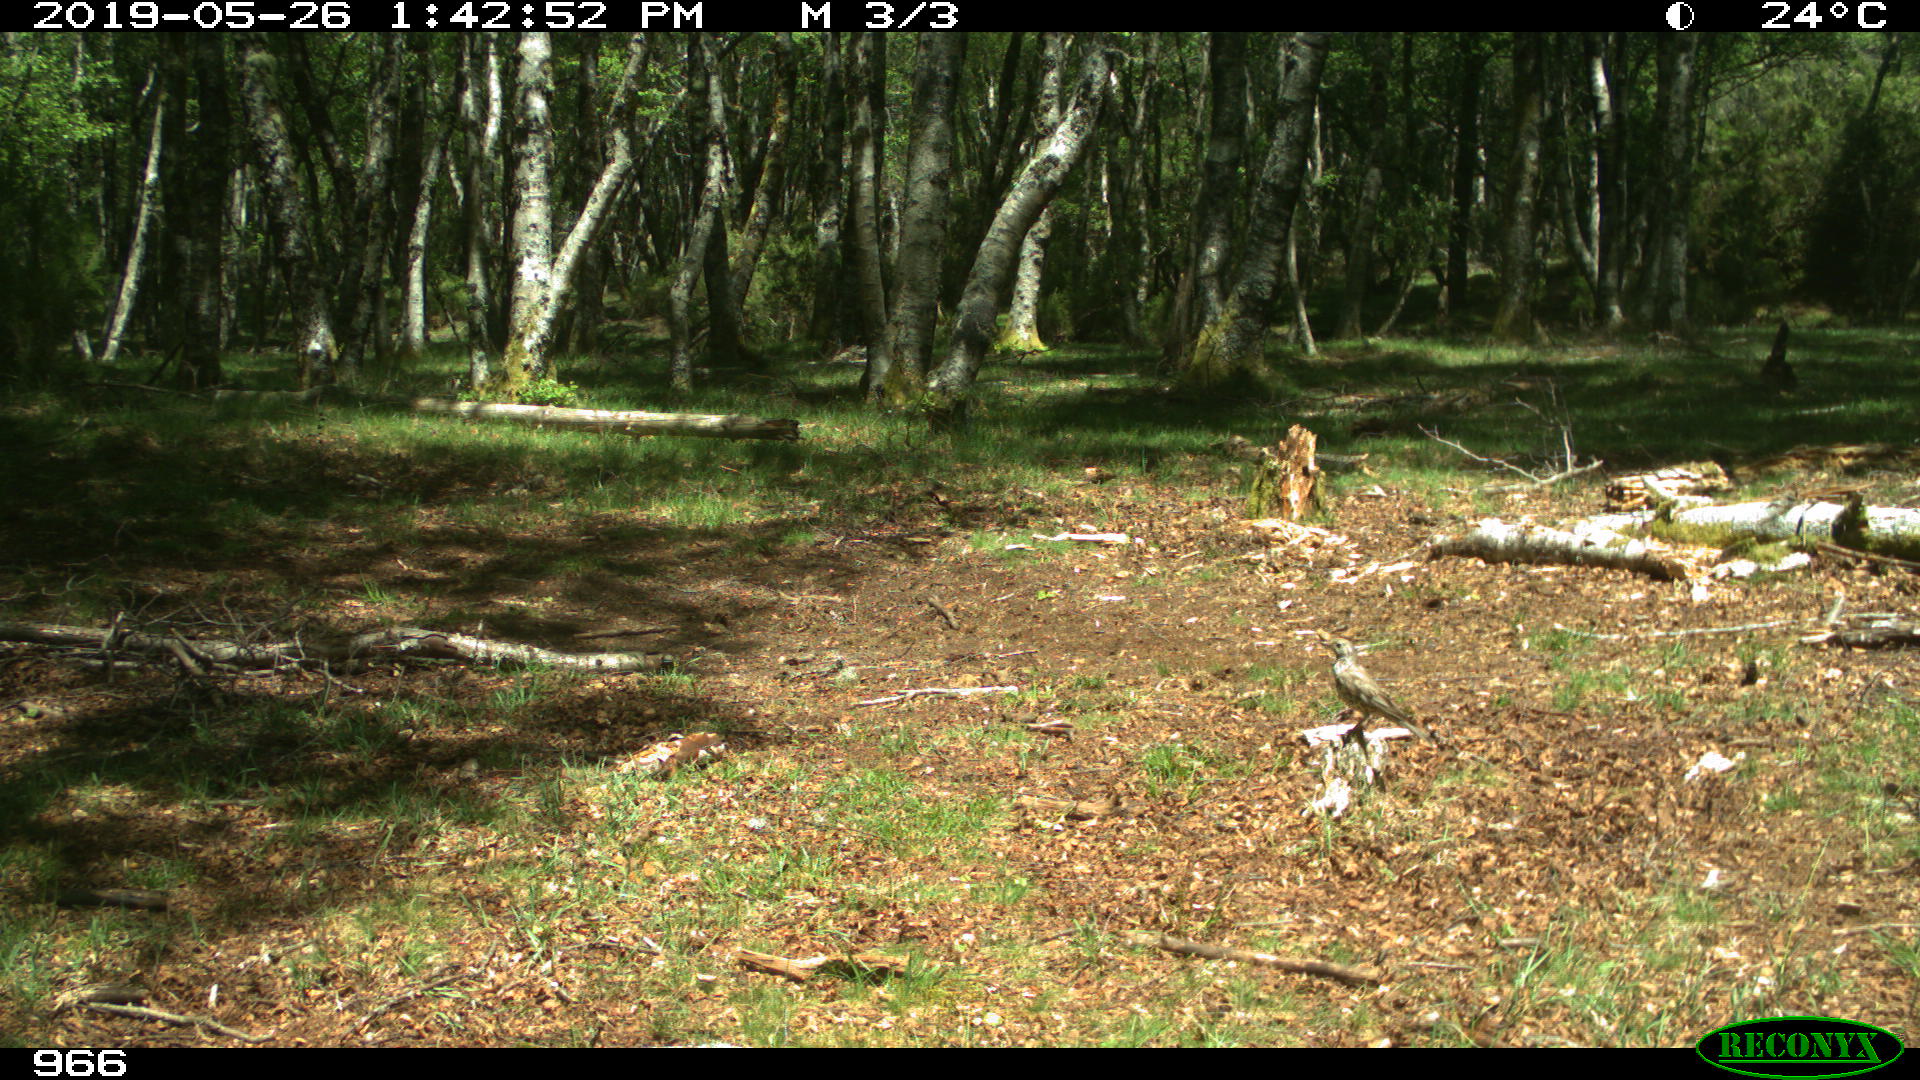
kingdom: Animalia
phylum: Chordata
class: Aves
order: Passeriformes
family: Turdidae
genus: Turdus
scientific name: Turdus viscivorus
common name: Mistle thrush
